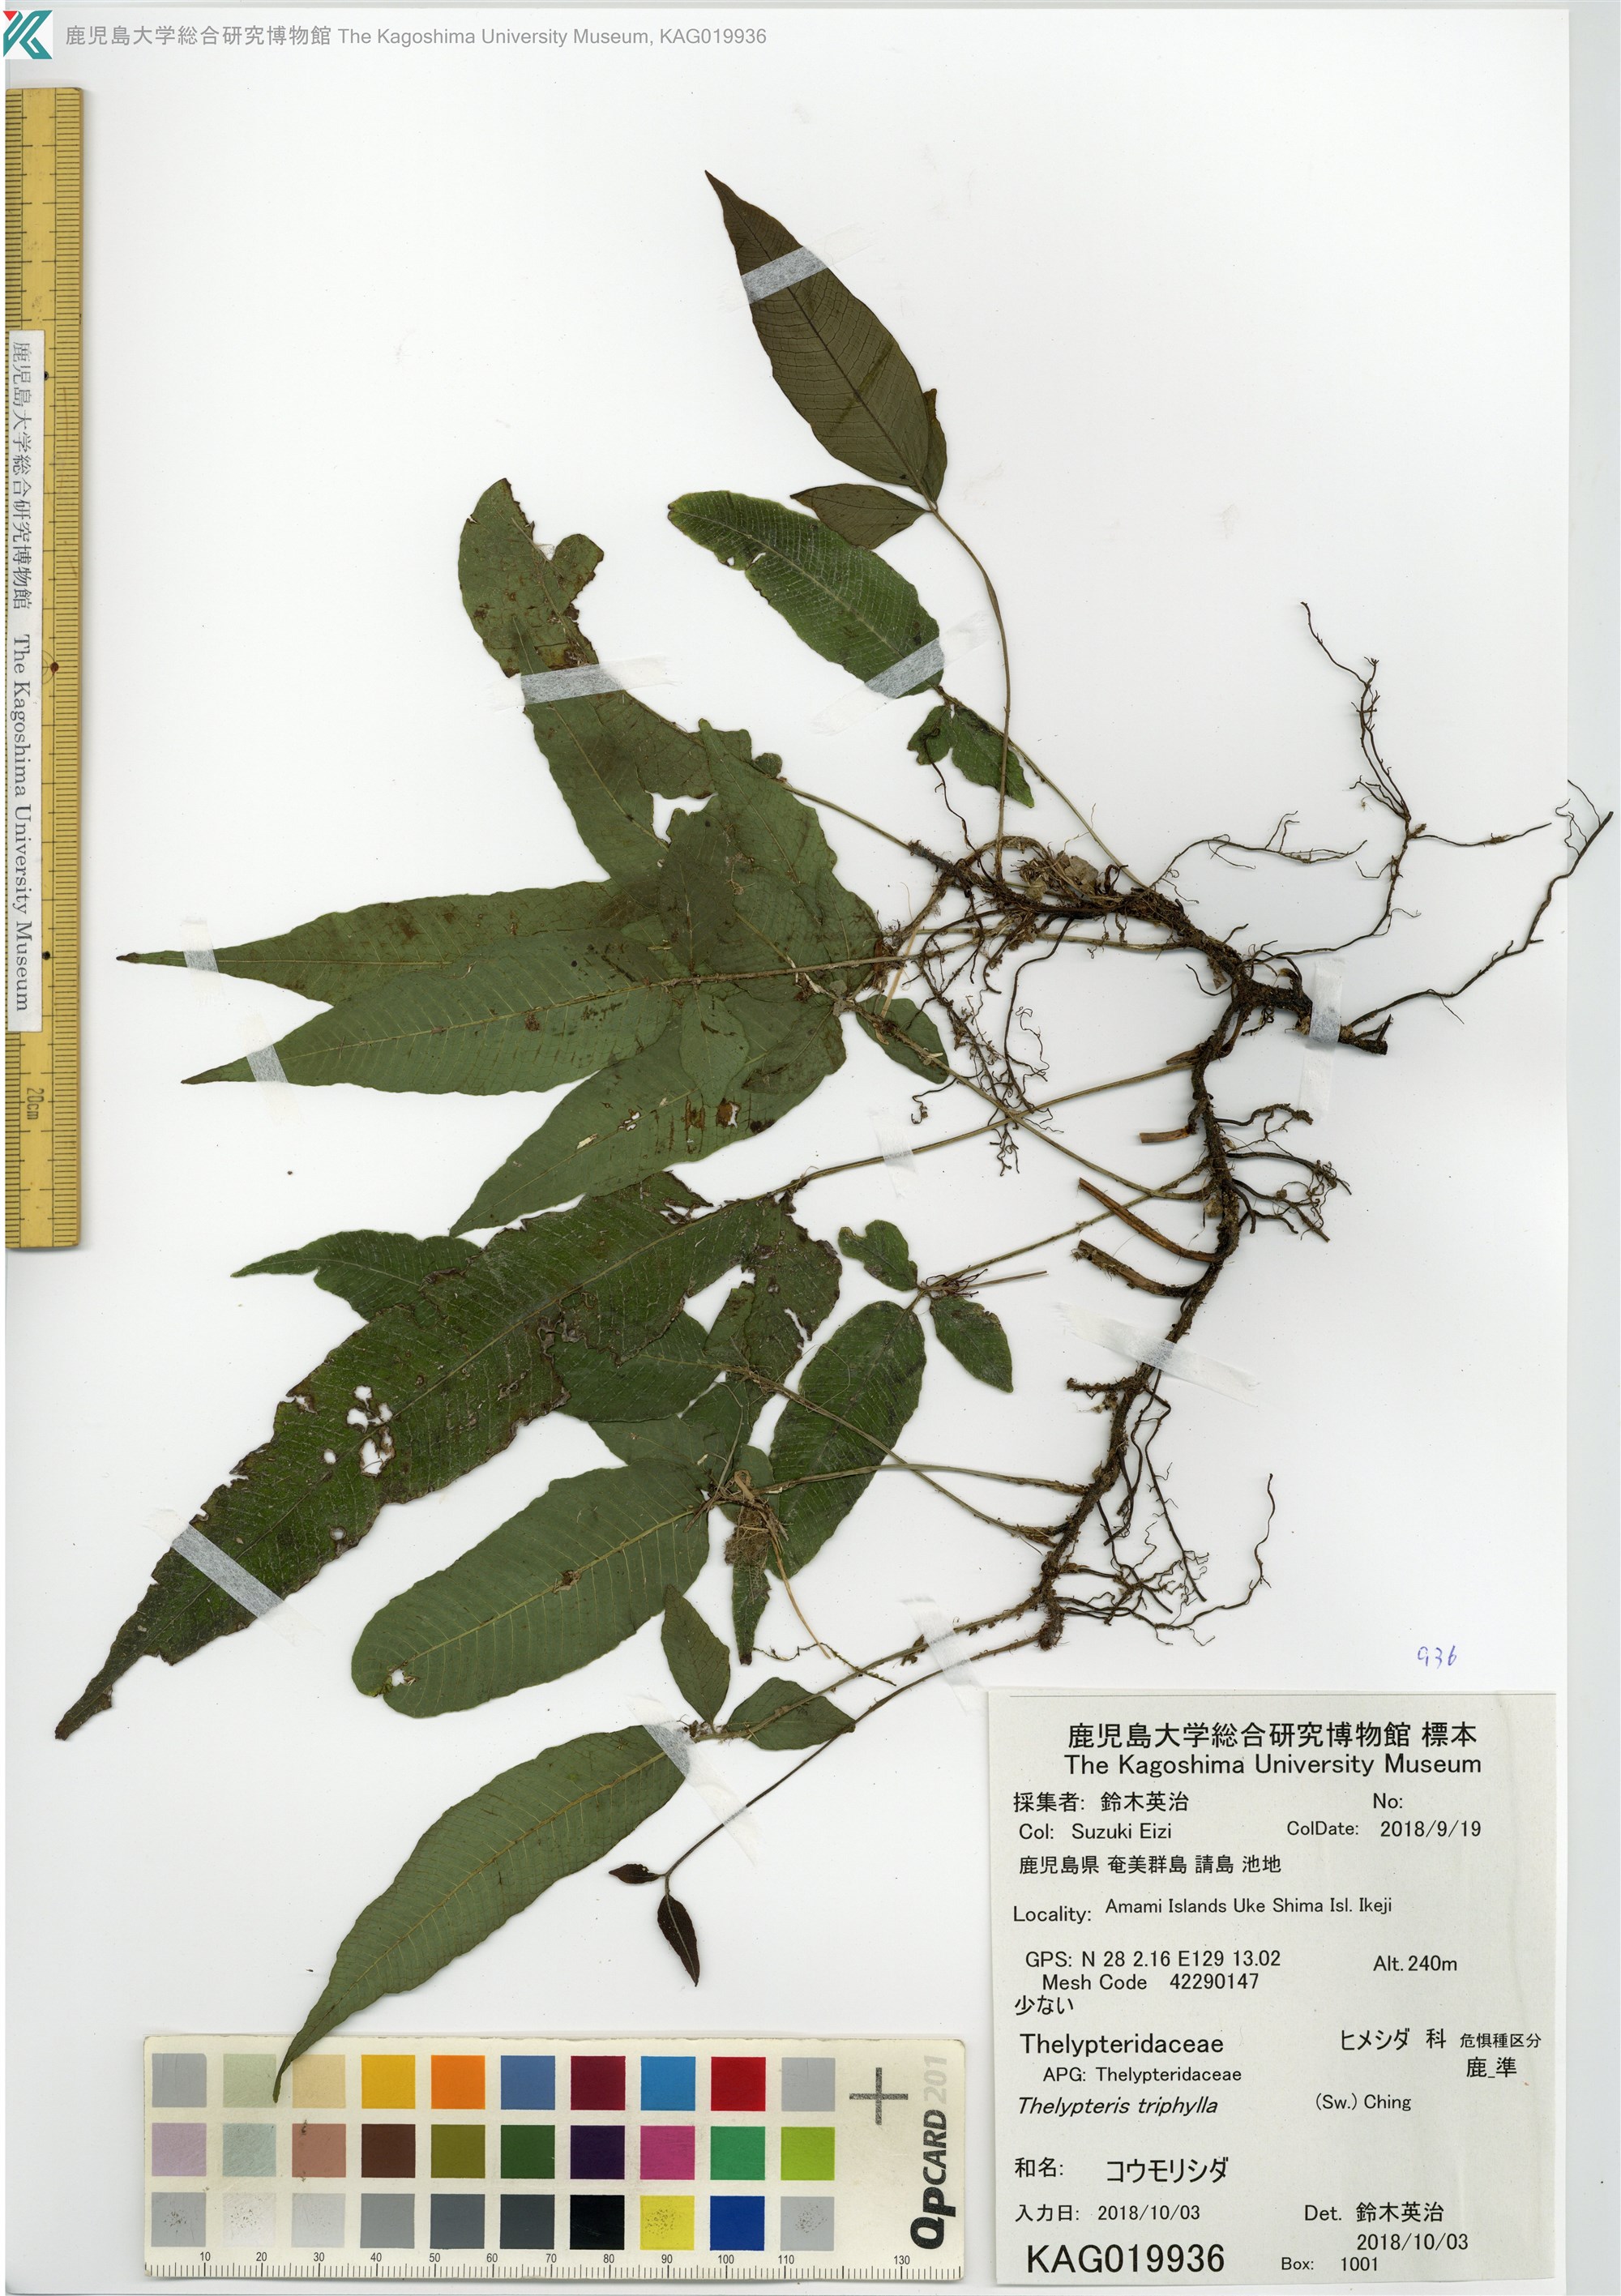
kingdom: Plantae
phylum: Tracheophyta
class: Polypodiopsida
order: Polypodiales
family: Thelypteridaceae
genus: Grypothrix
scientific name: Grypothrix triphylla
